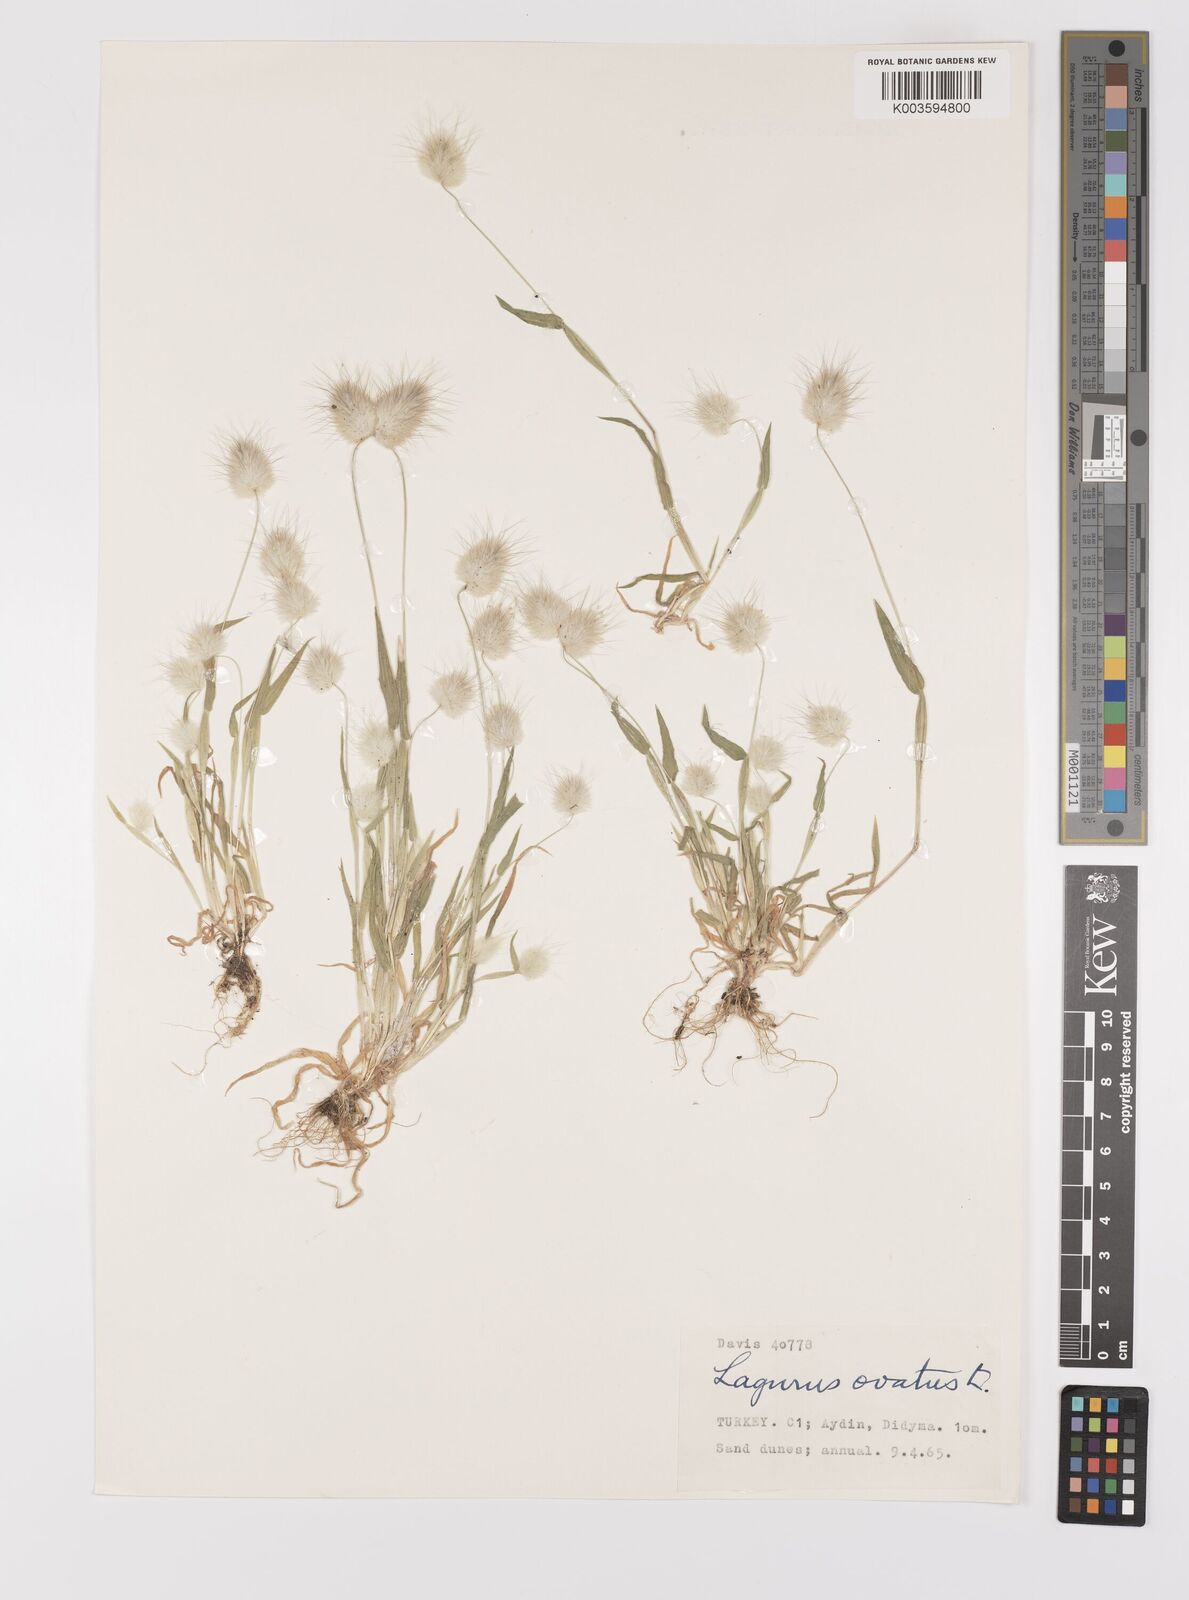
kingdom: Plantae
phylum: Tracheophyta
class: Liliopsida
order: Poales
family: Poaceae
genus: Lagurus
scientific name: Lagurus ovatus
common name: Hare's-tail
